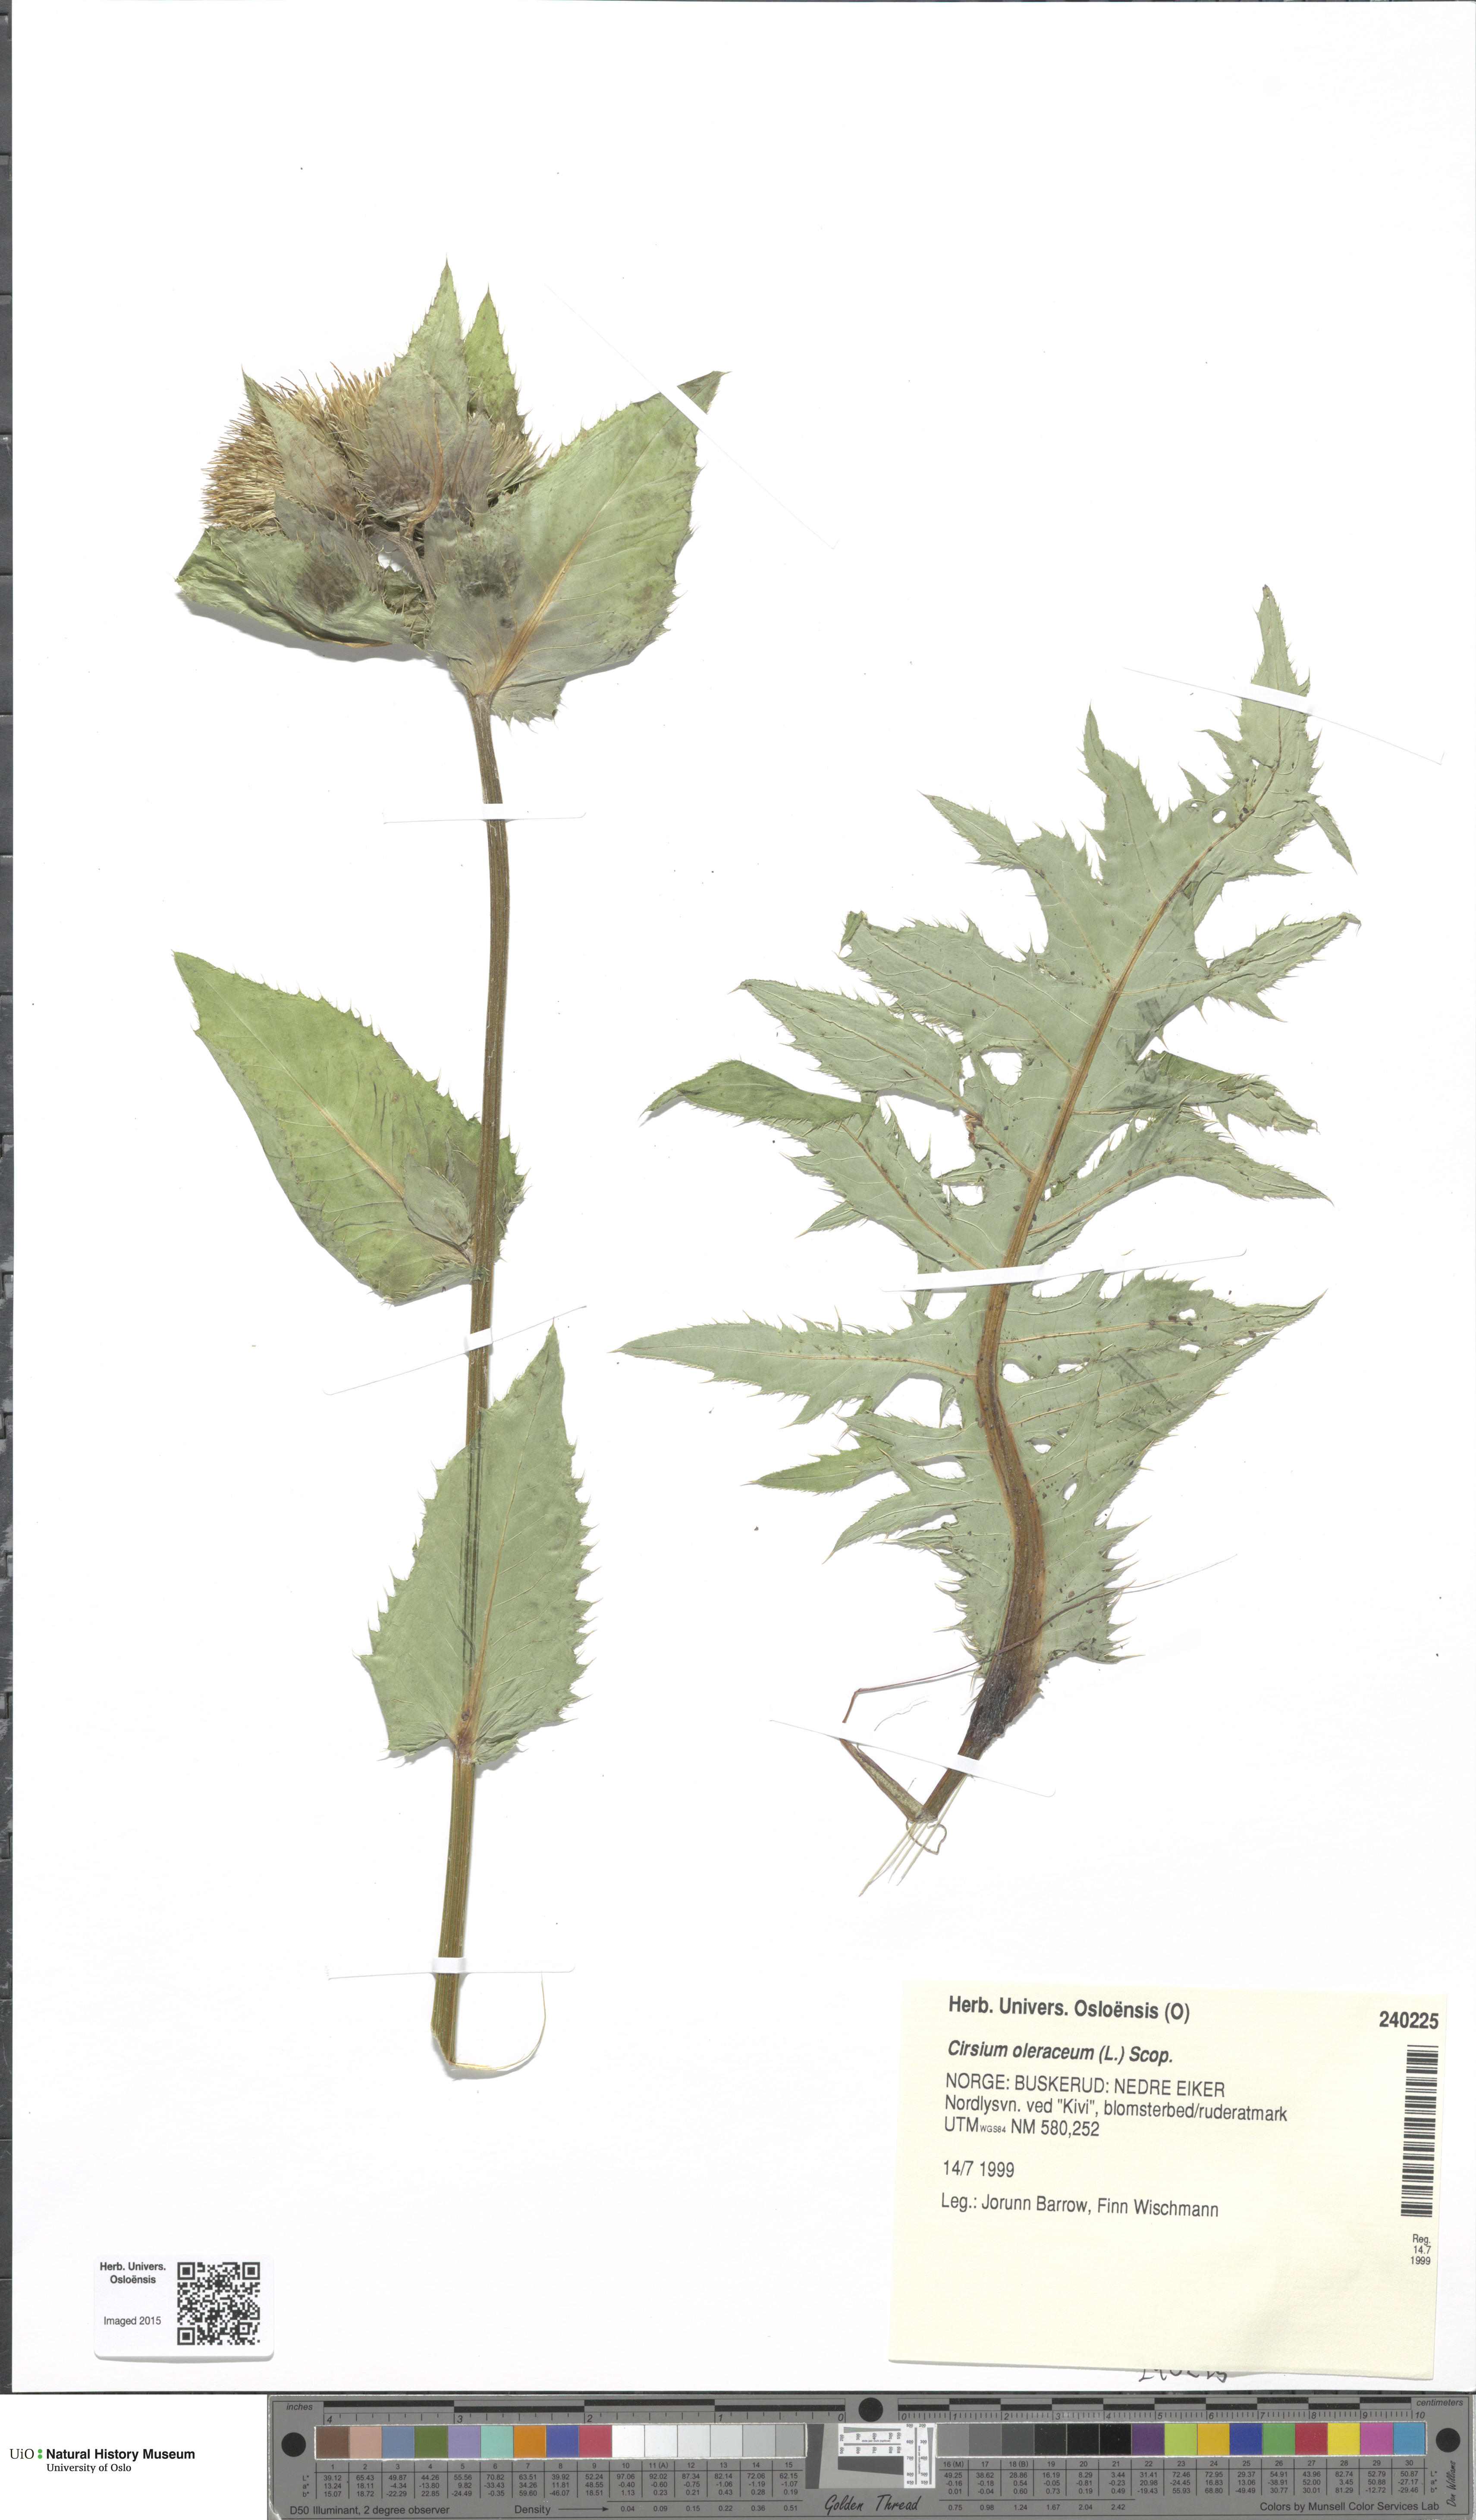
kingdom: Plantae
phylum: Tracheophyta
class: Magnoliopsida
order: Asterales
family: Asteraceae
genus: Cirsium
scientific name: Cirsium oleraceum
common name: Cabbage thistle
